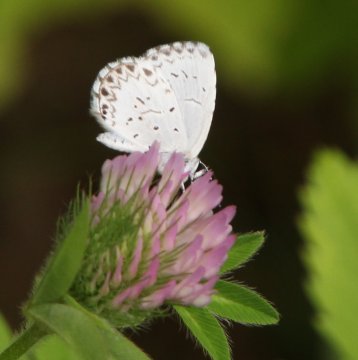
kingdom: Animalia
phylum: Arthropoda
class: Insecta
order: Lepidoptera
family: Lycaenidae
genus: Cyaniris
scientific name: Cyaniris neglecta
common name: Summer Azure
